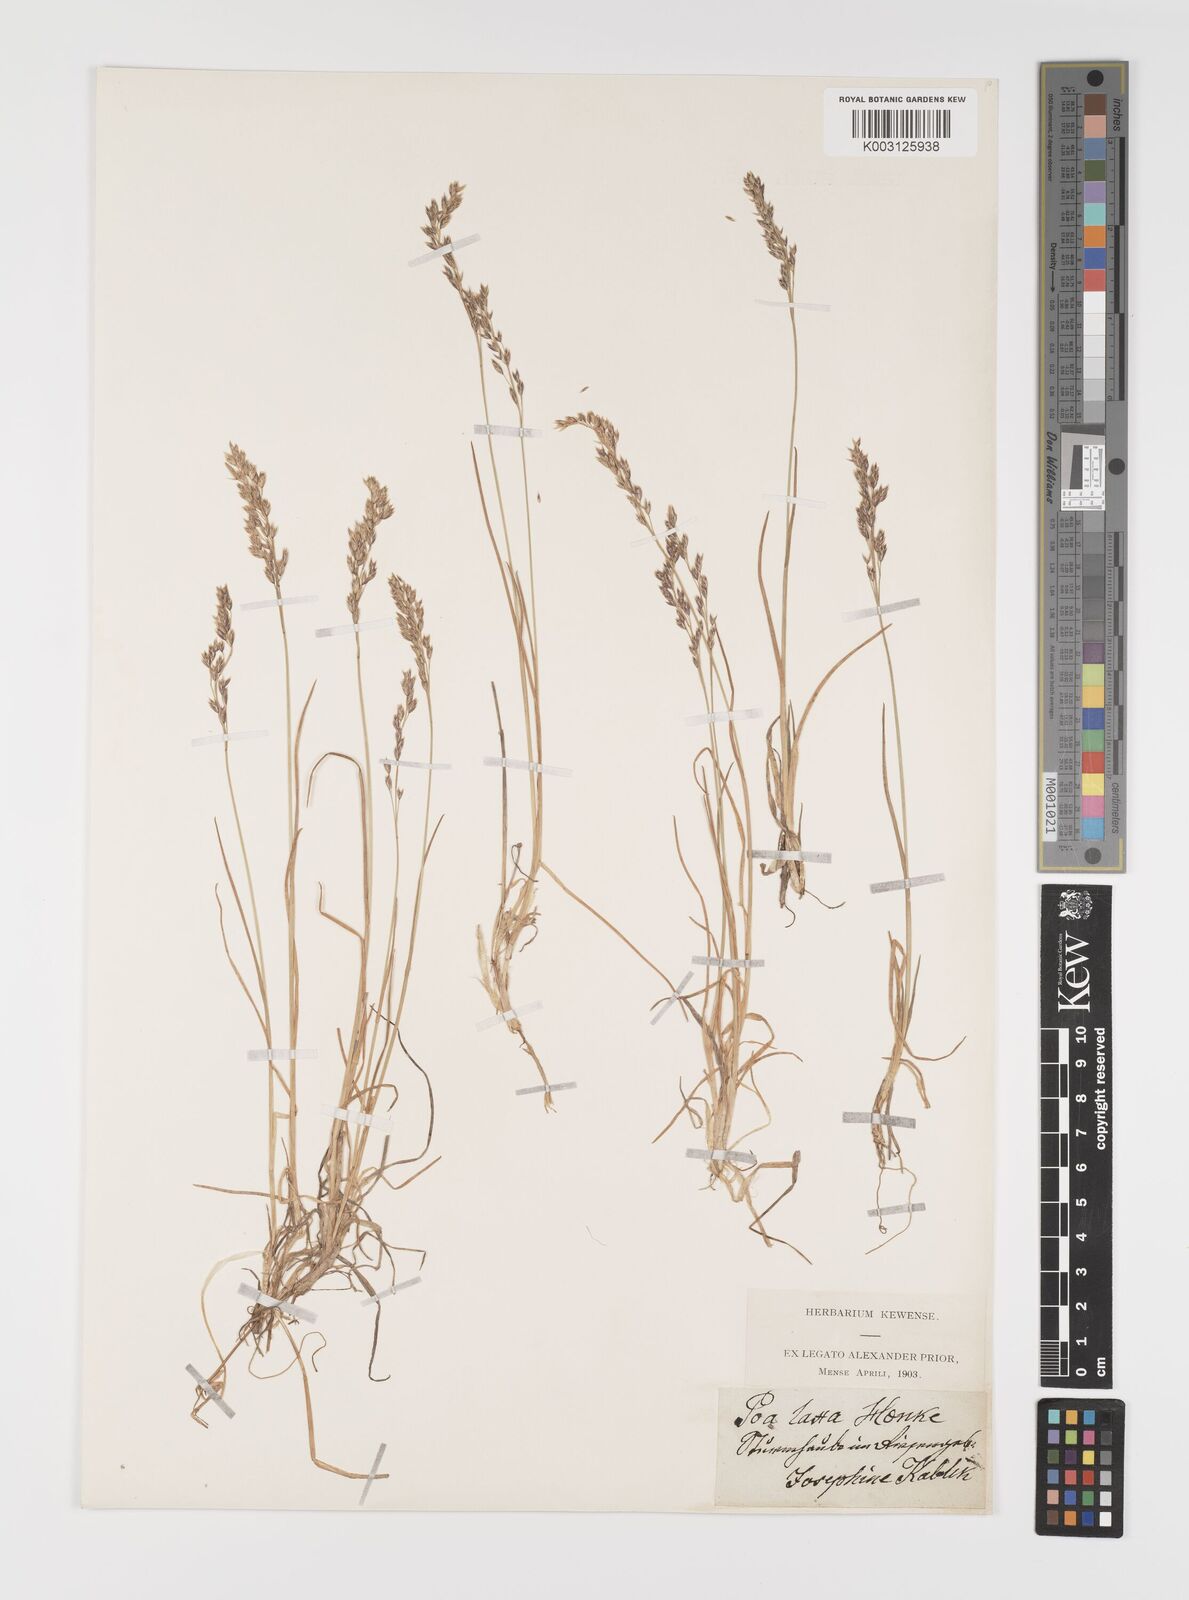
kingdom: Plantae
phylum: Tracheophyta
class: Liliopsida
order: Poales
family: Poaceae
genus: Poa
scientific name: Poa laxa
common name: Lax bluegrass
